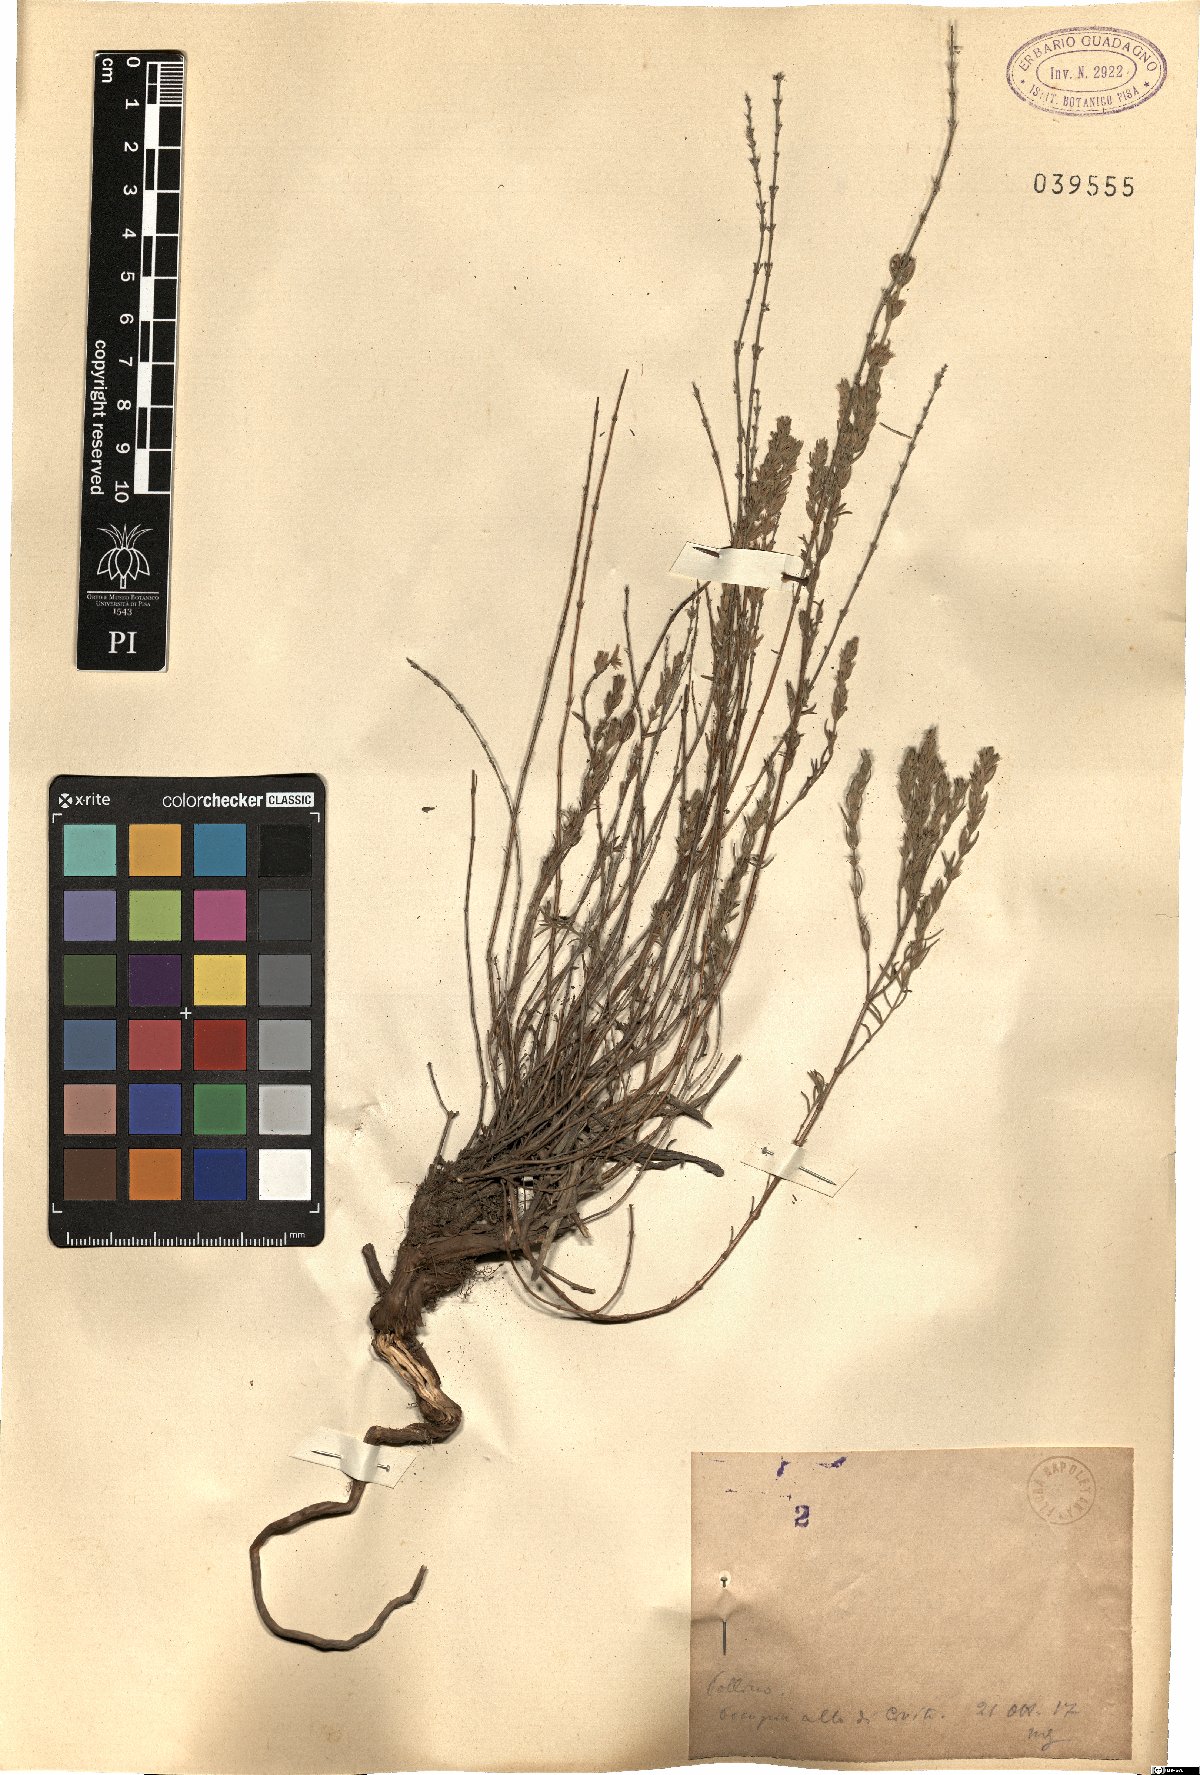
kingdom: Plantae
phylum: Tracheophyta
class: Magnoliopsida
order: Lamiales
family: Lamiaceae
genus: Micromeria
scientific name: Micromeria
